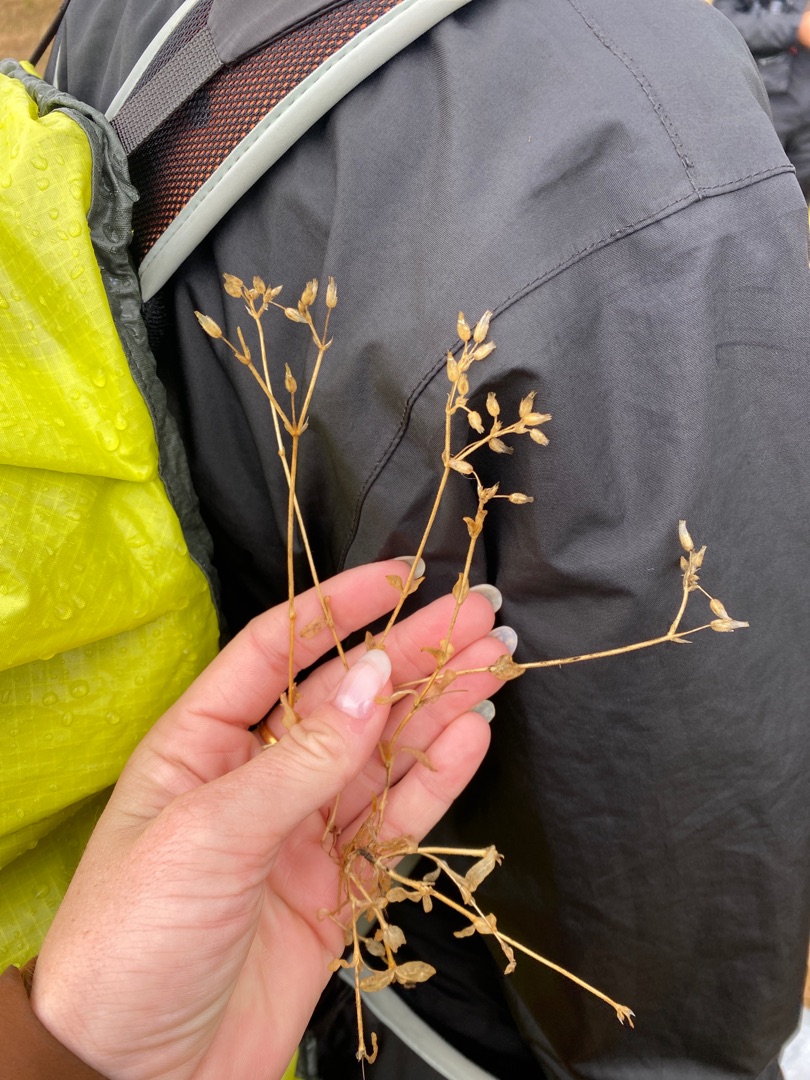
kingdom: Plantae
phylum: Tracheophyta
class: Magnoliopsida
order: Caryophyllales
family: Caryophyllaceae
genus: Cerastium
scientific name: Cerastium semidecandrum
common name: Femhannet hønsetarm
